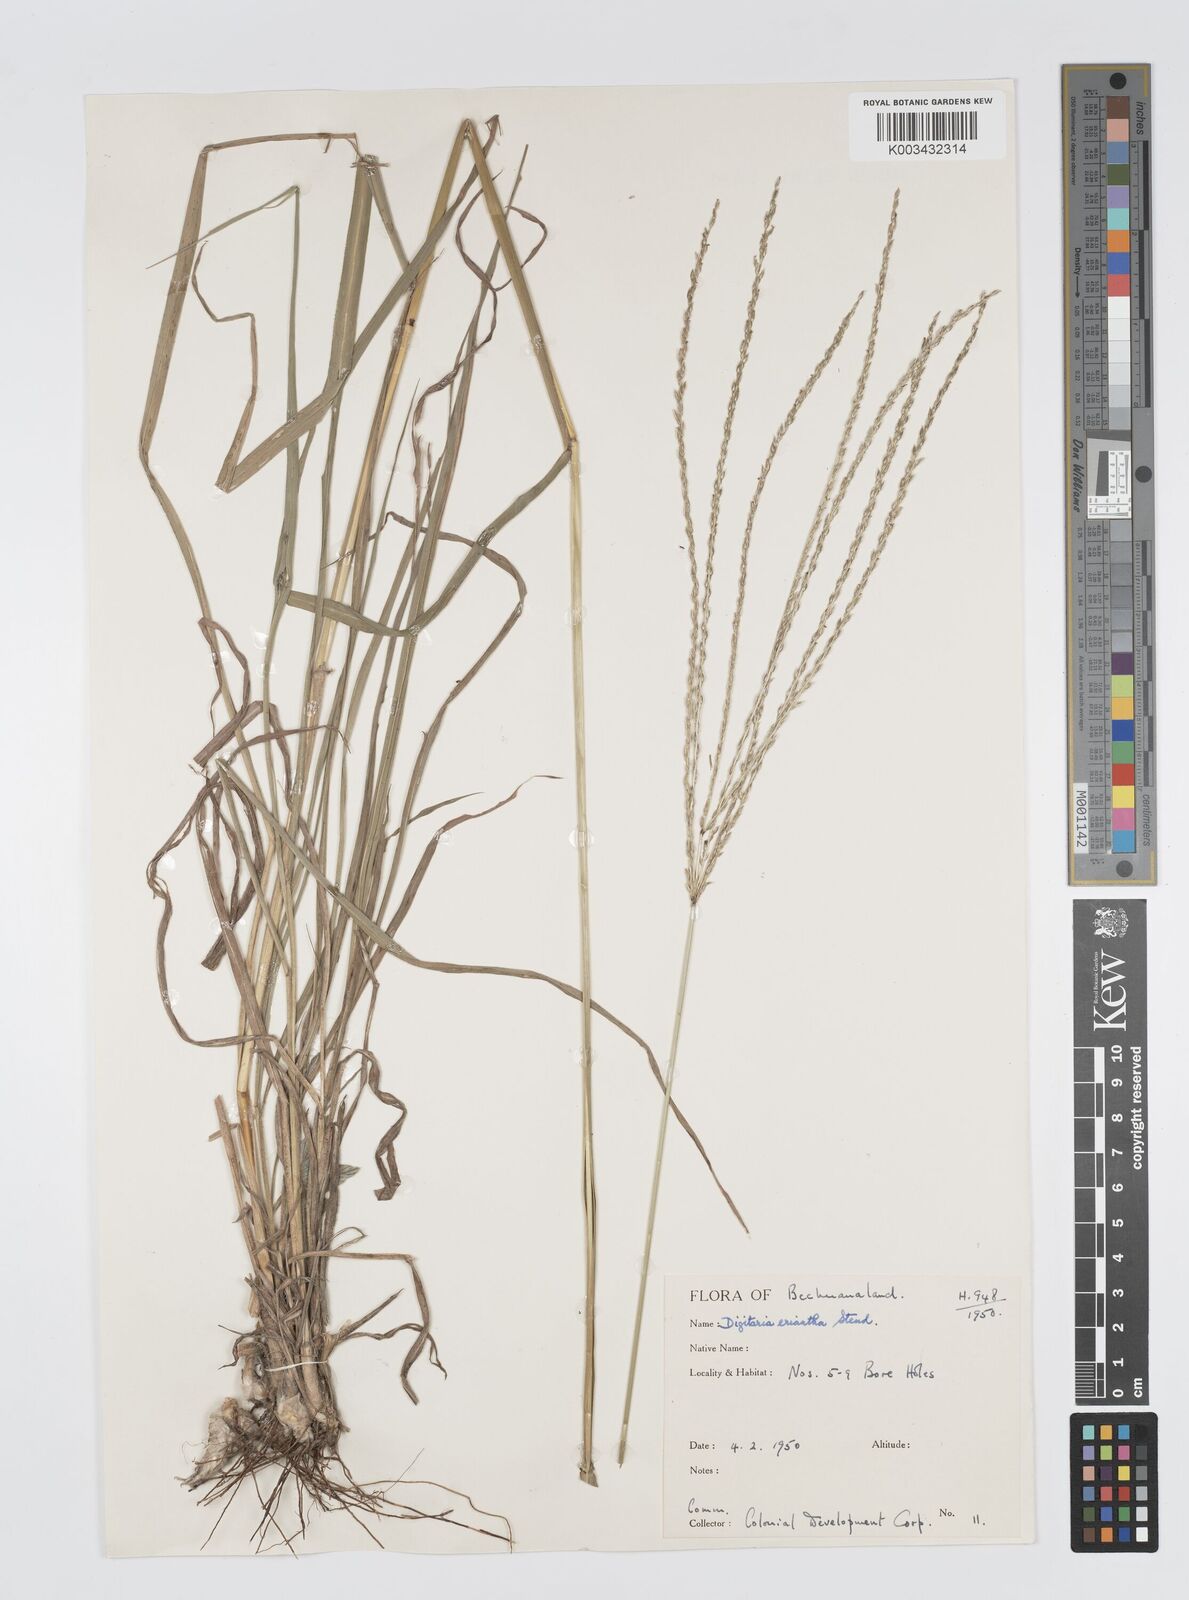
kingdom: Plantae
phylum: Tracheophyta
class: Liliopsida
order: Poales
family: Poaceae
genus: Digitaria
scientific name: Digitaria milanjiana
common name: Madagascar crabgrass
